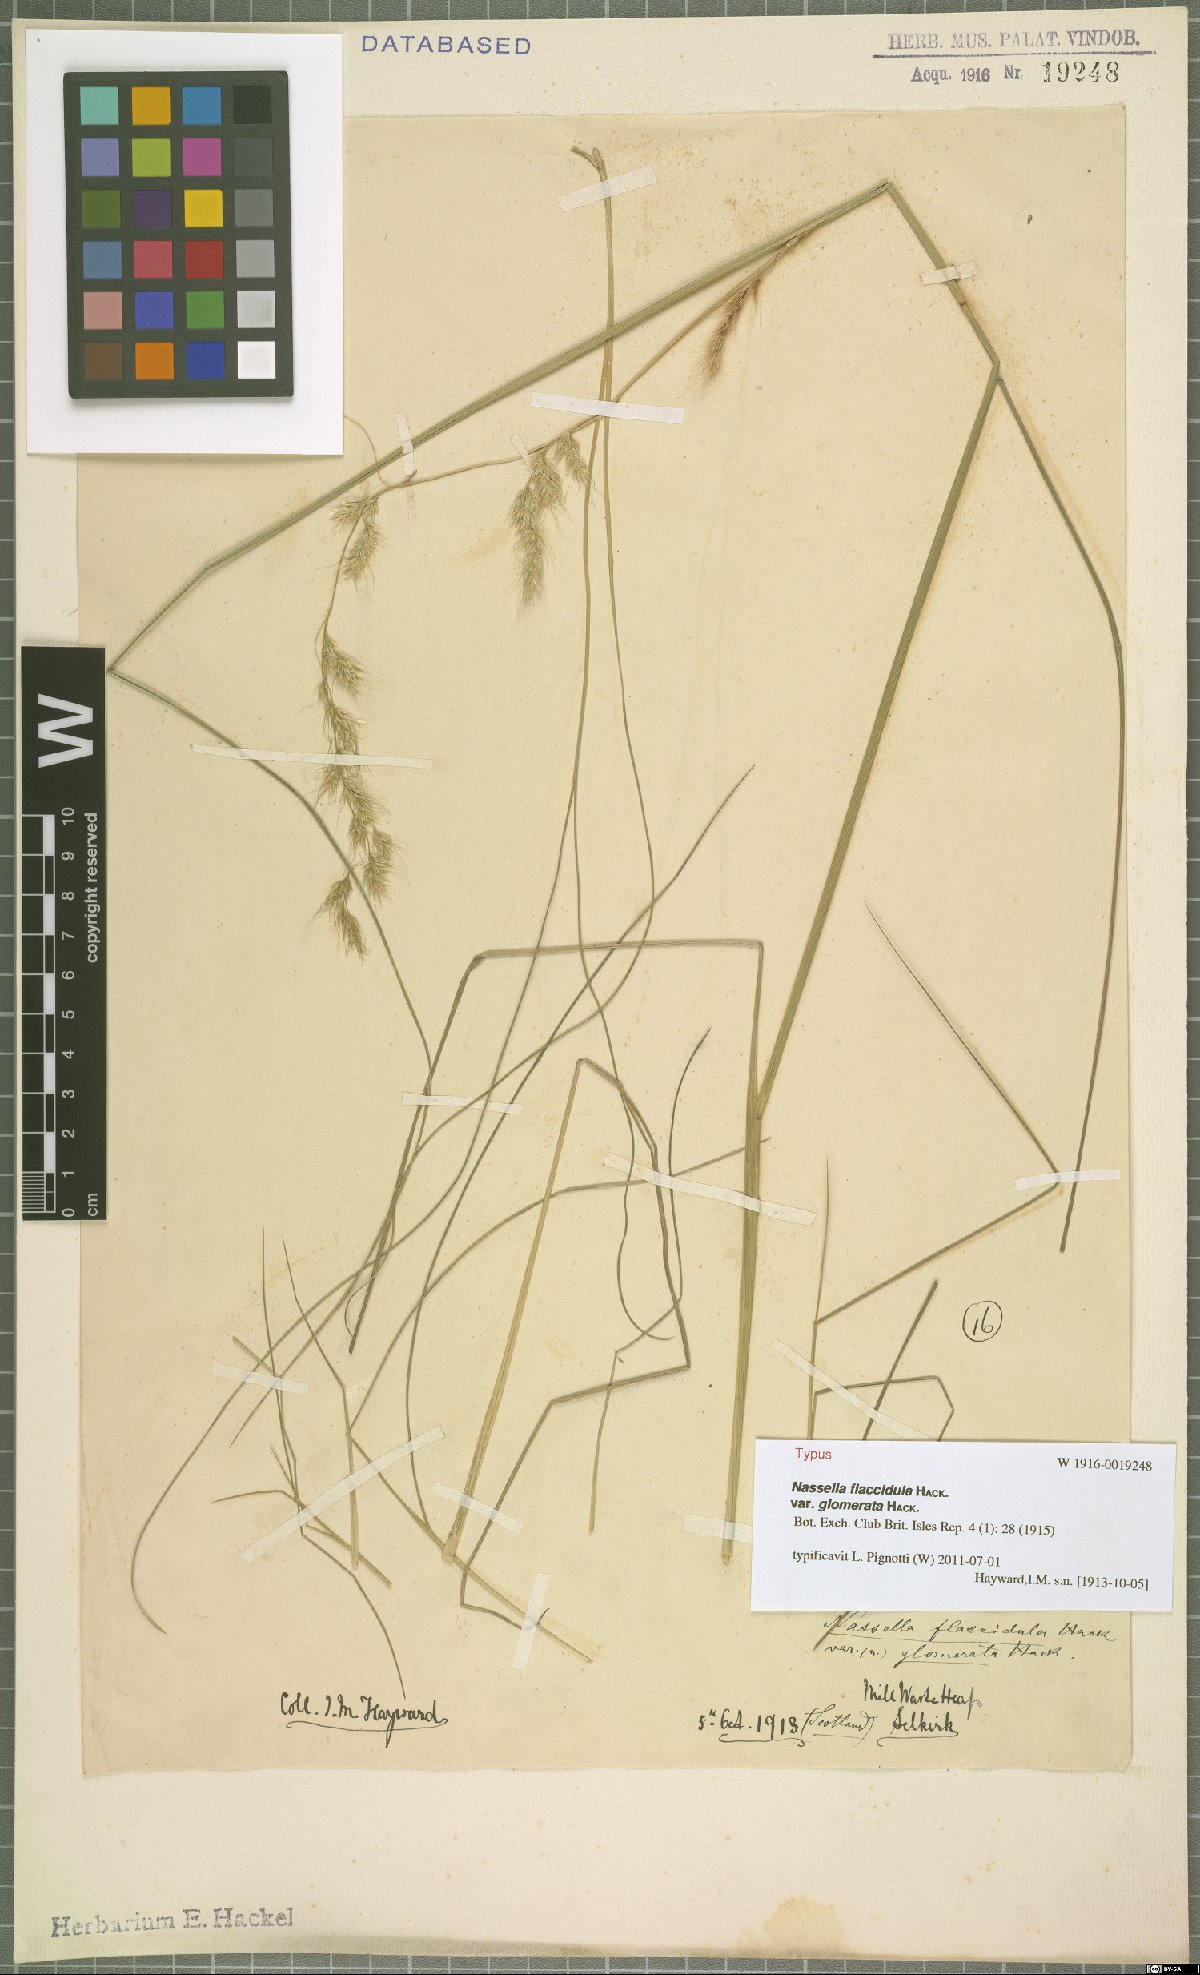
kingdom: Plantae
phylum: Tracheophyta
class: Liliopsida
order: Poales
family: Poaceae
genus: Nassella
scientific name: Nassella pubiflora
